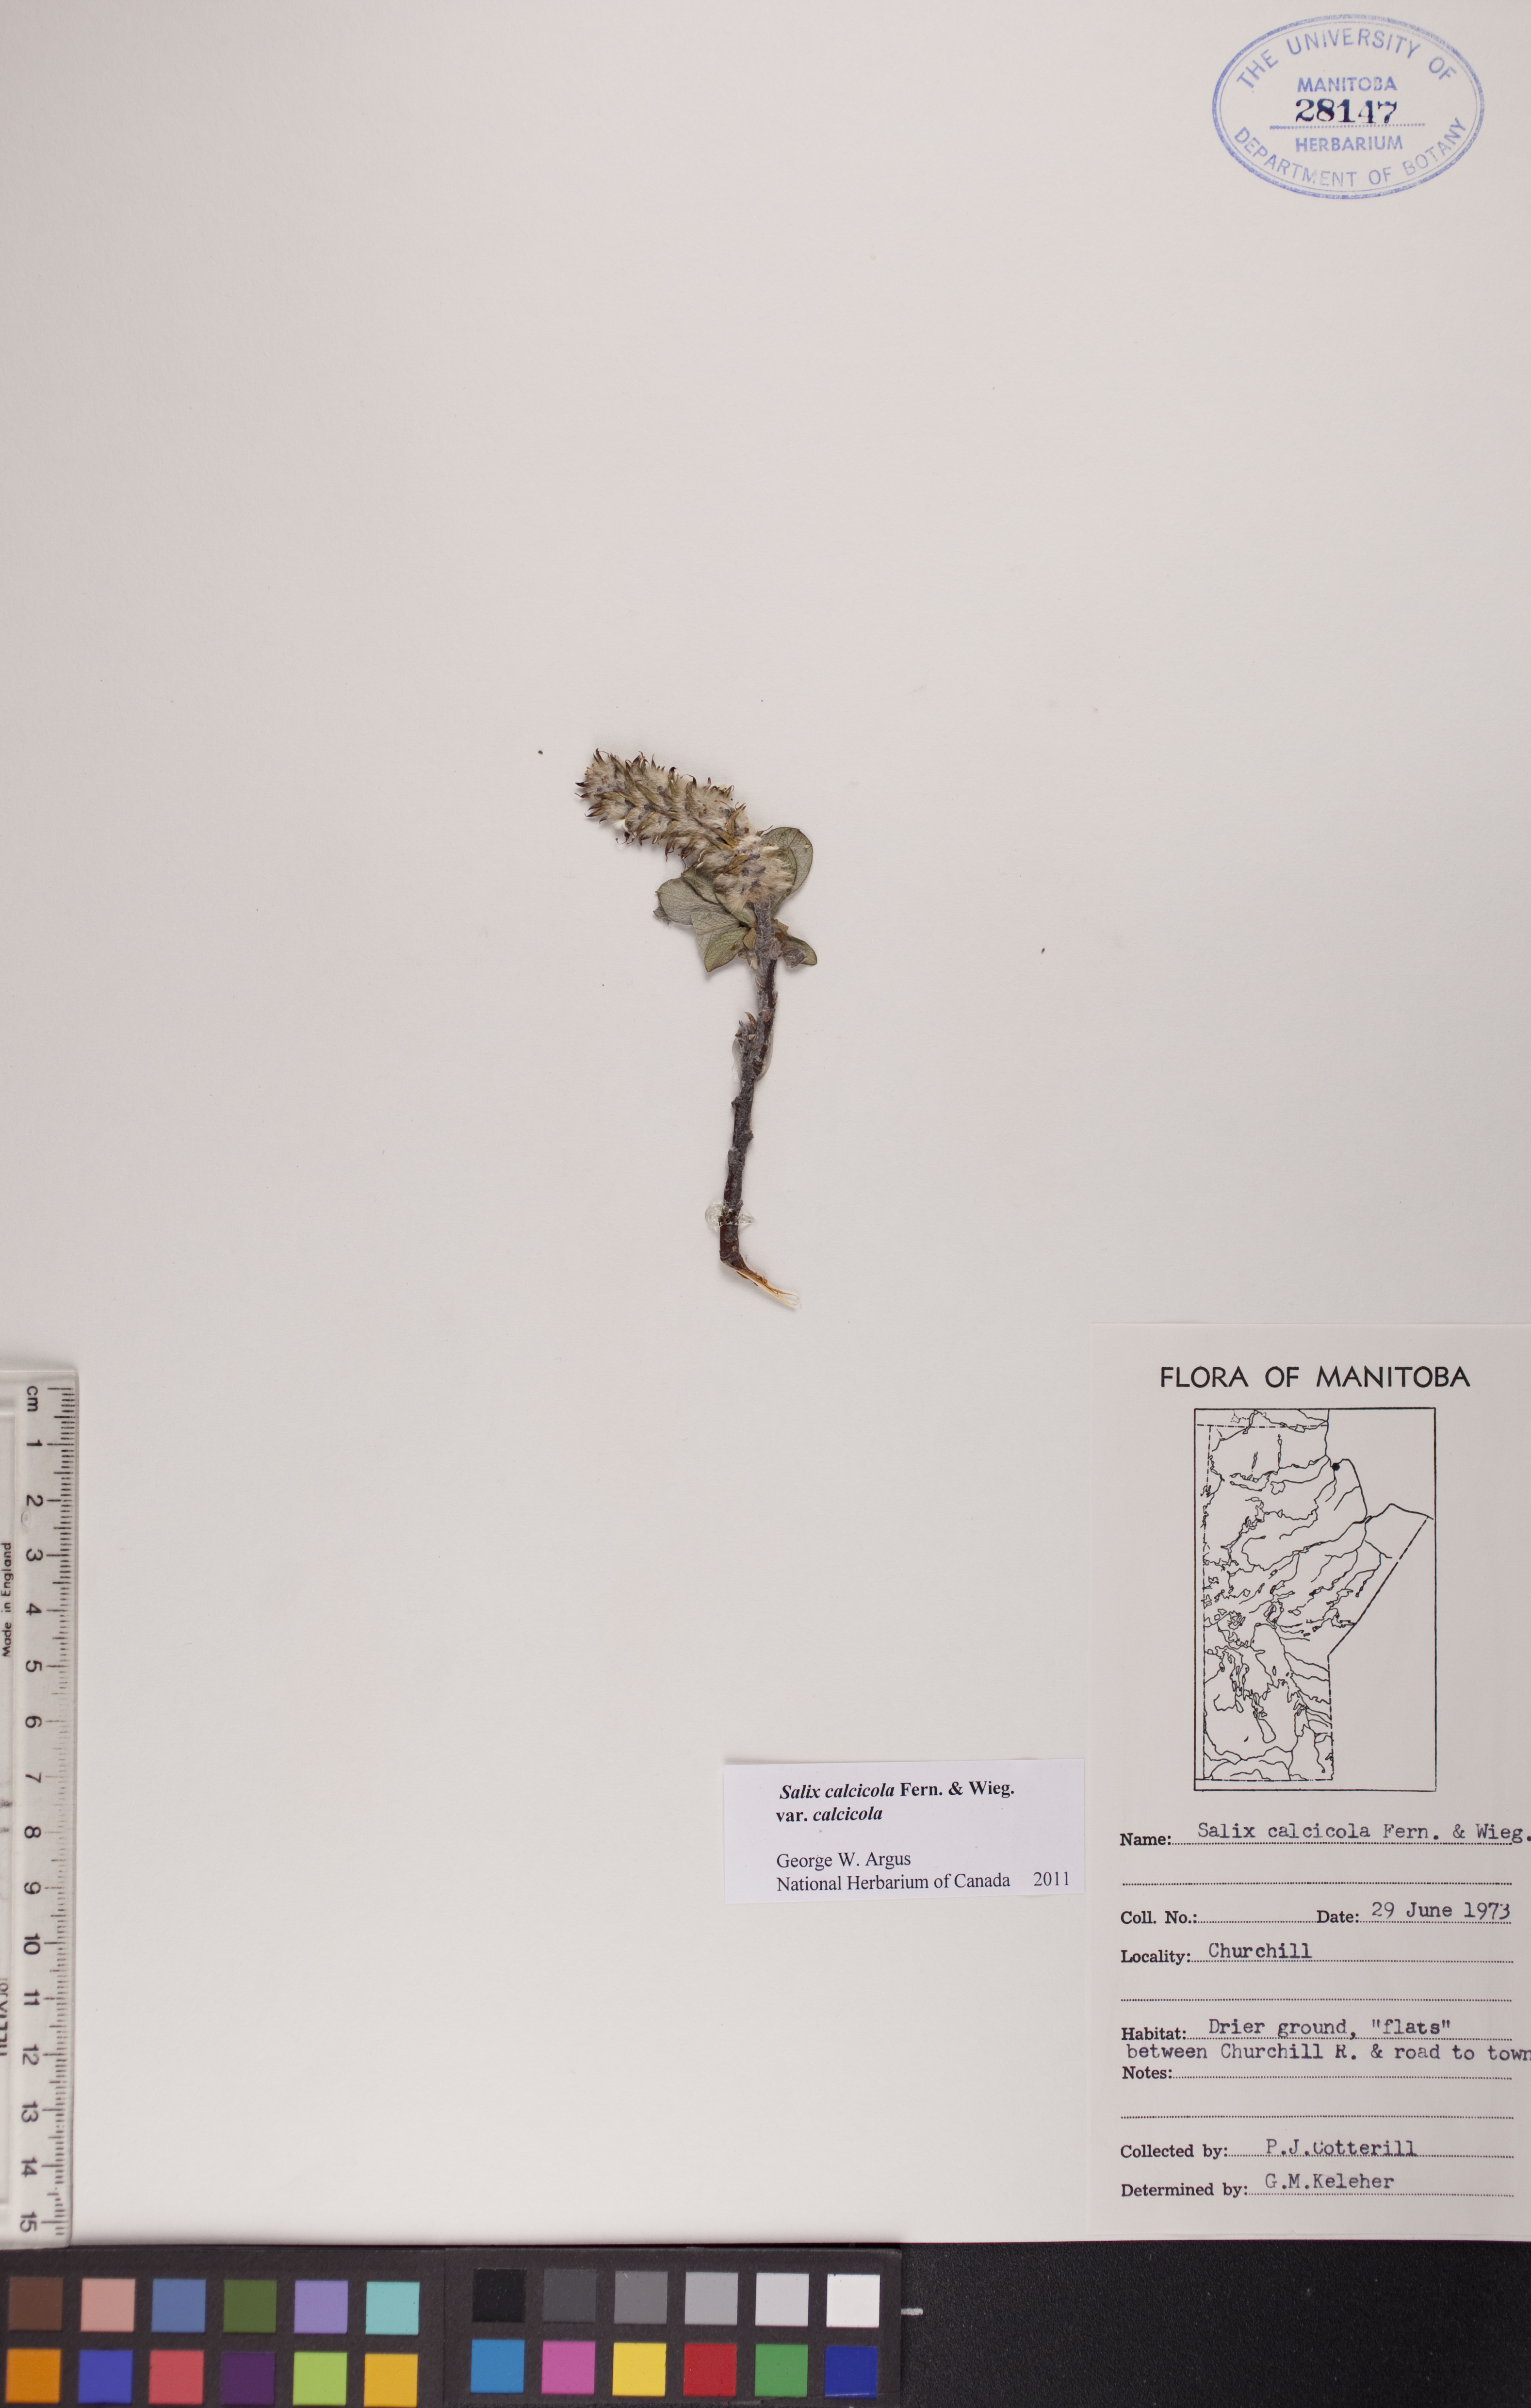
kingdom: Plantae
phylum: Tracheophyta
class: Magnoliopsida
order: Malpighiales
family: Salicaceae
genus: Salix
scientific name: Salix calcicola
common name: Calcareous willow
